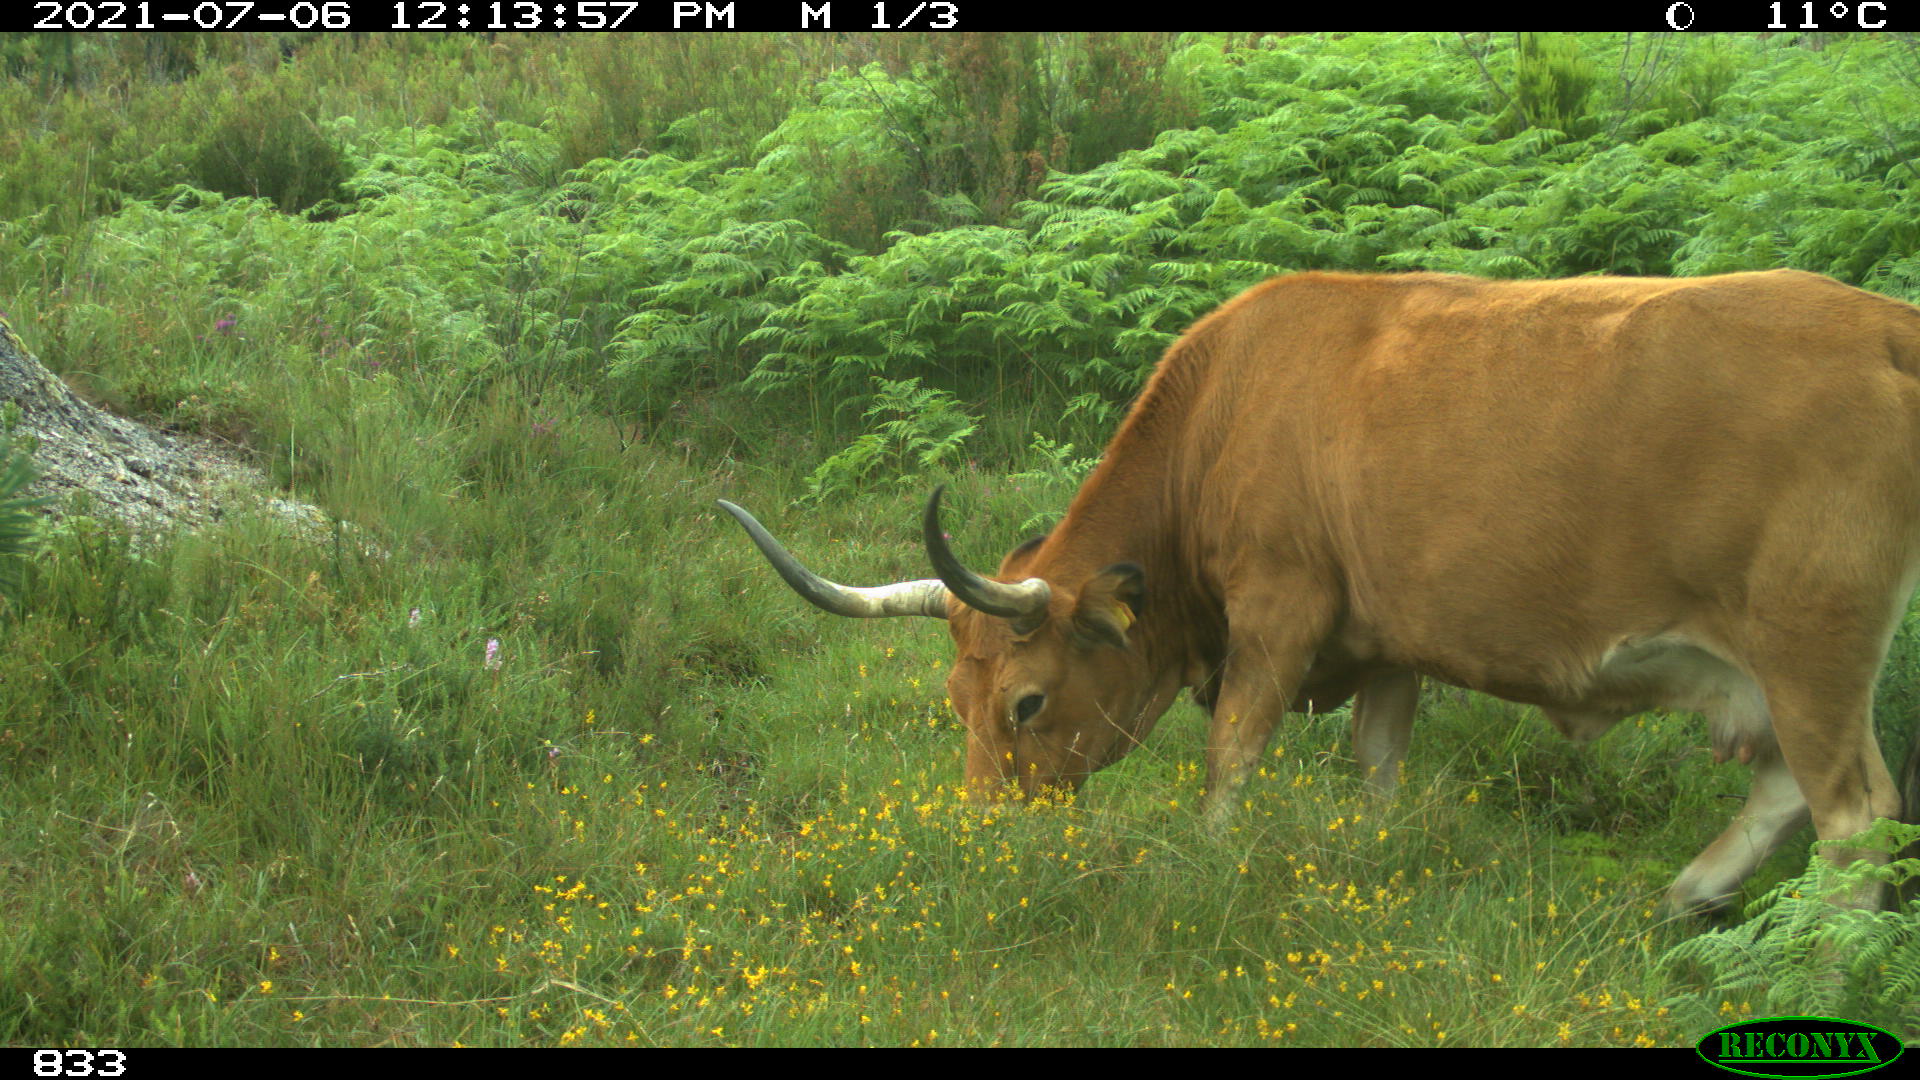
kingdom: Animalia
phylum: Chordata
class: Mammalia
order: Artiodactyla
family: Bovidae
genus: Bos
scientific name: Bos taurus
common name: Domesticated cattle
